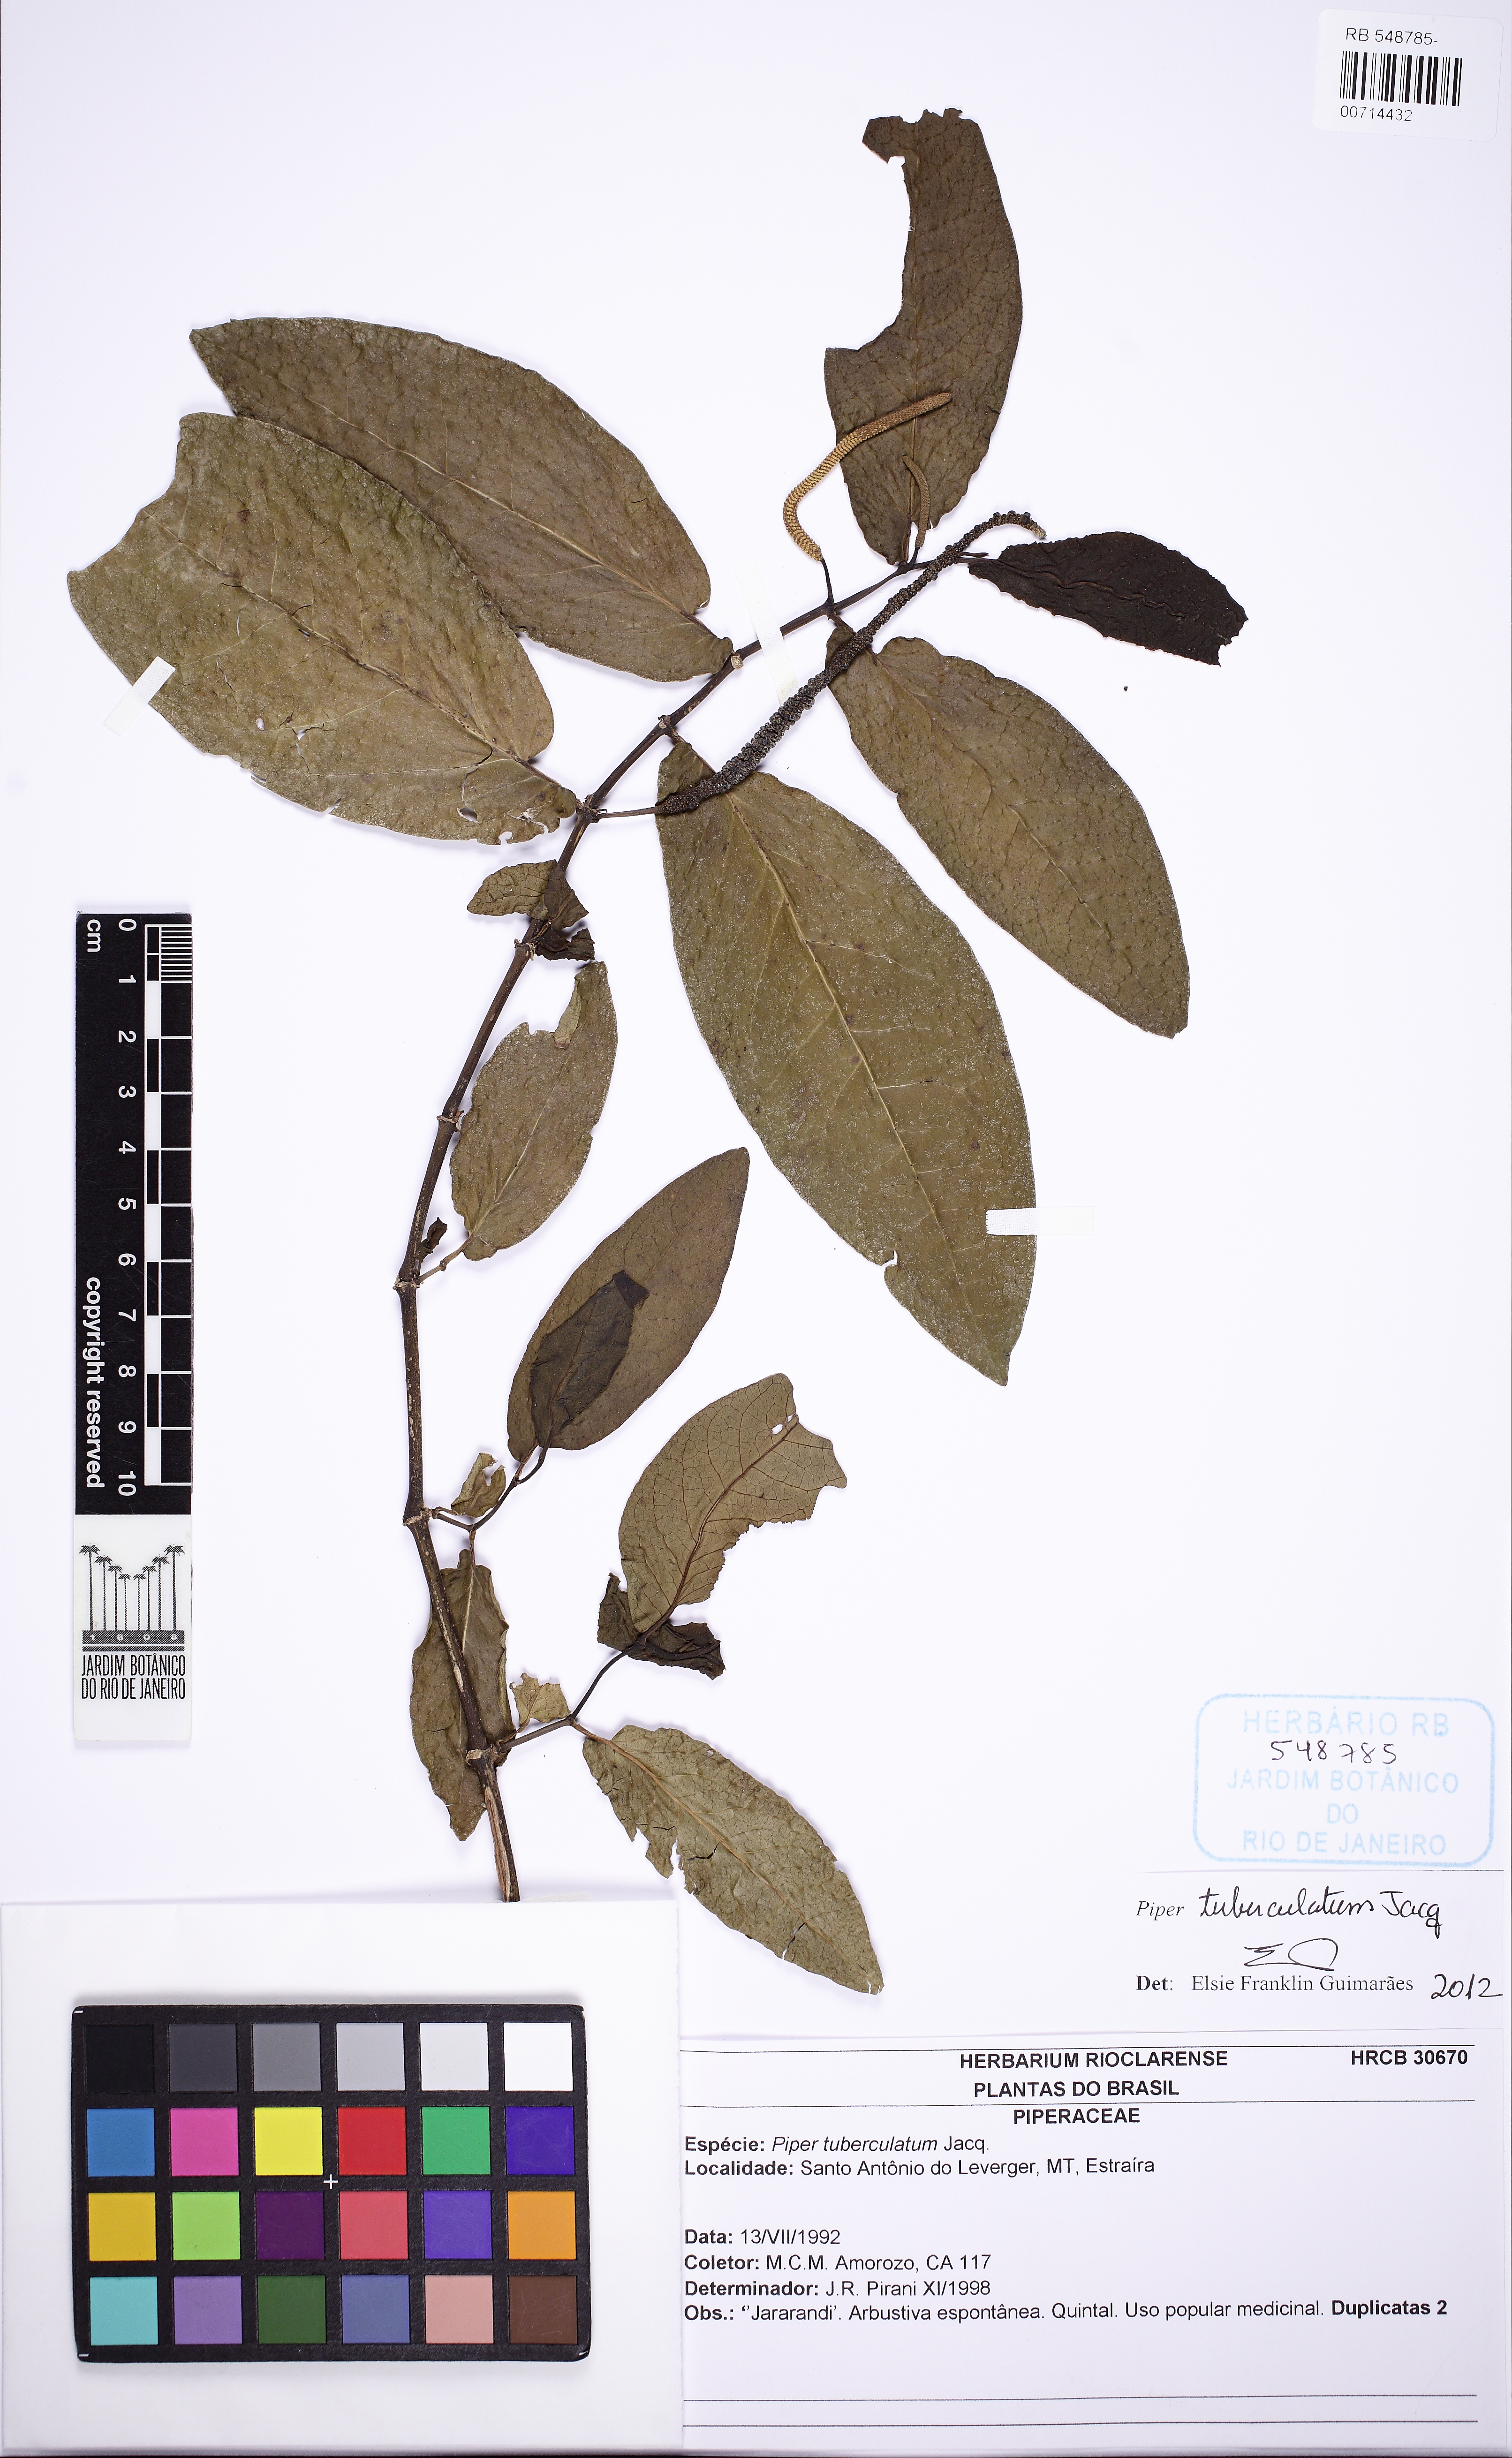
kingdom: Plantae
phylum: Tracheophyta
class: Magnoliopsida
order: Piperales
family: Piperaceae
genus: Piper
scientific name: Piper tuberculatum
